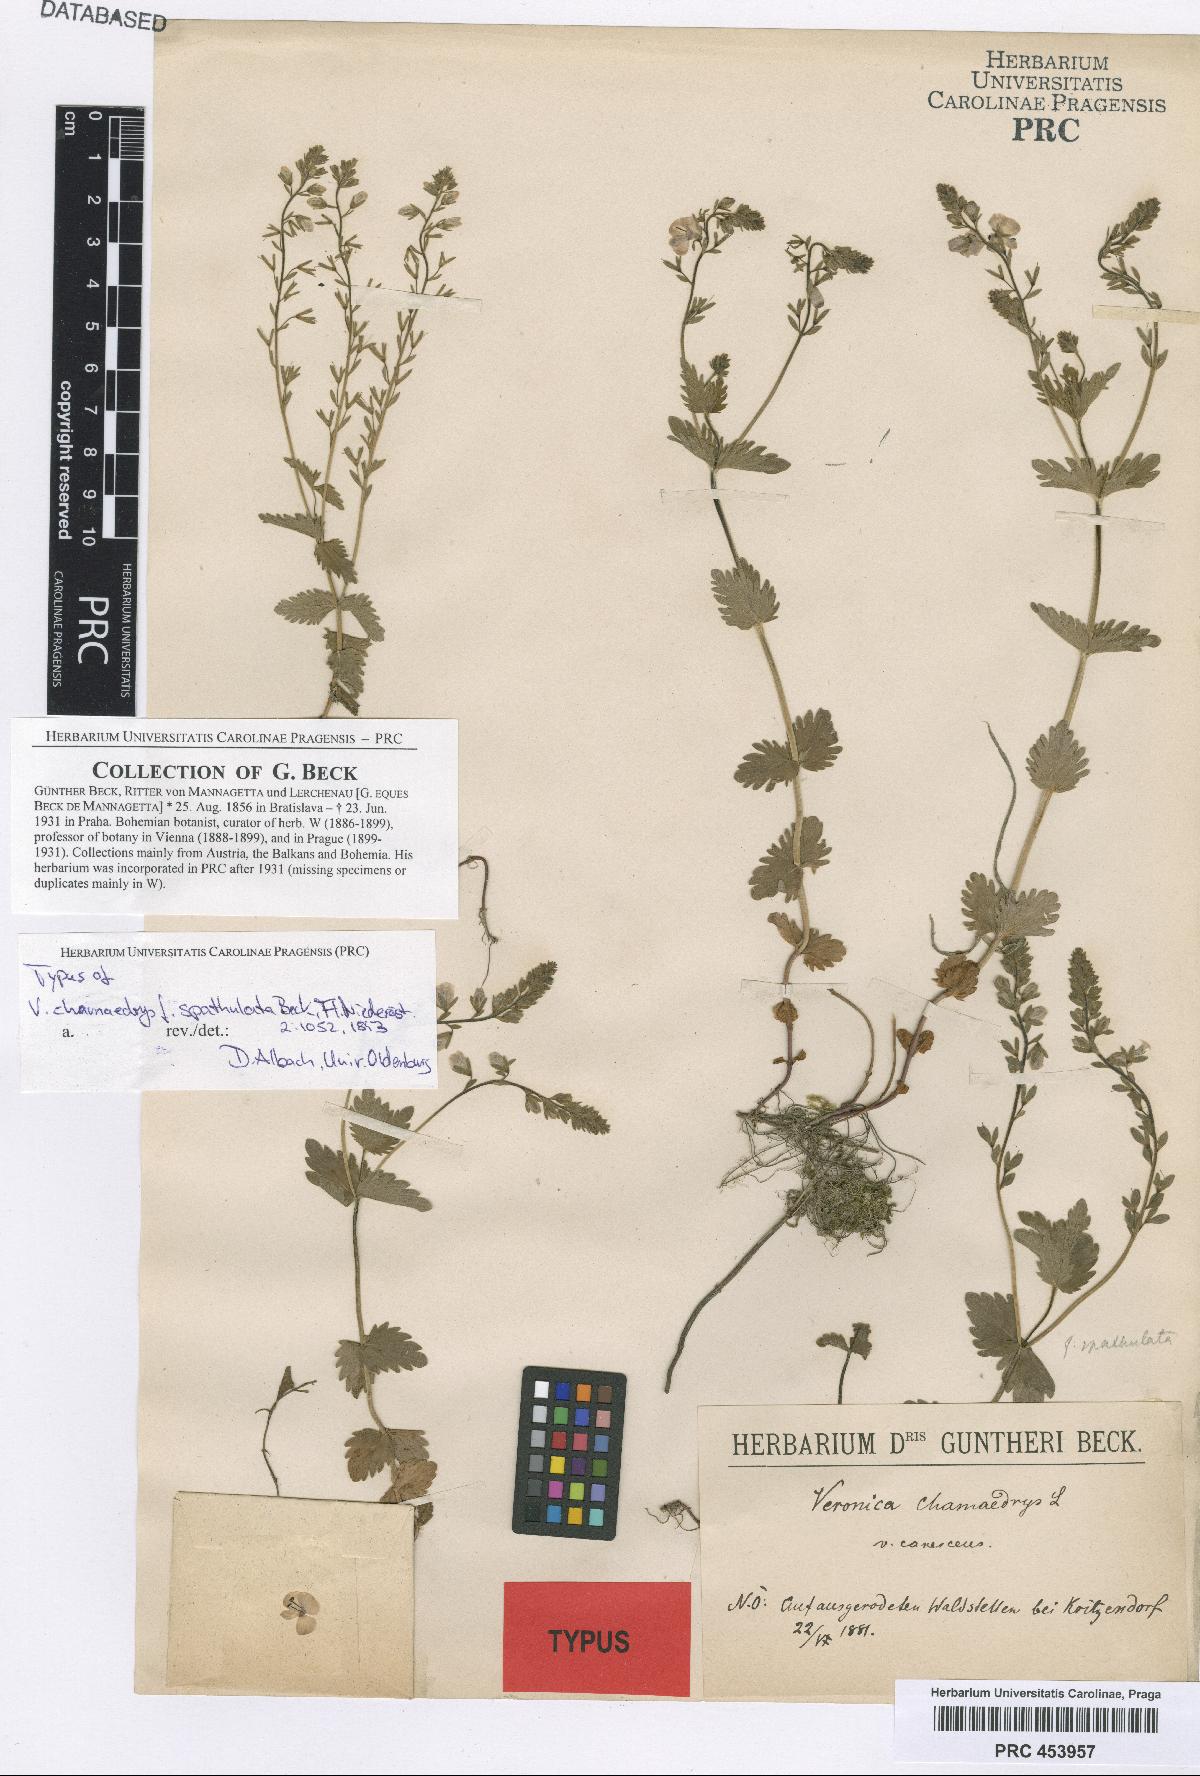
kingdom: Plantae
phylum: Tracheophyta
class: Magnoliopsida
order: Lamiales
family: Plantaginaceae
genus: Veronica
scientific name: Veronica chamaedrys
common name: Germander speedwell
